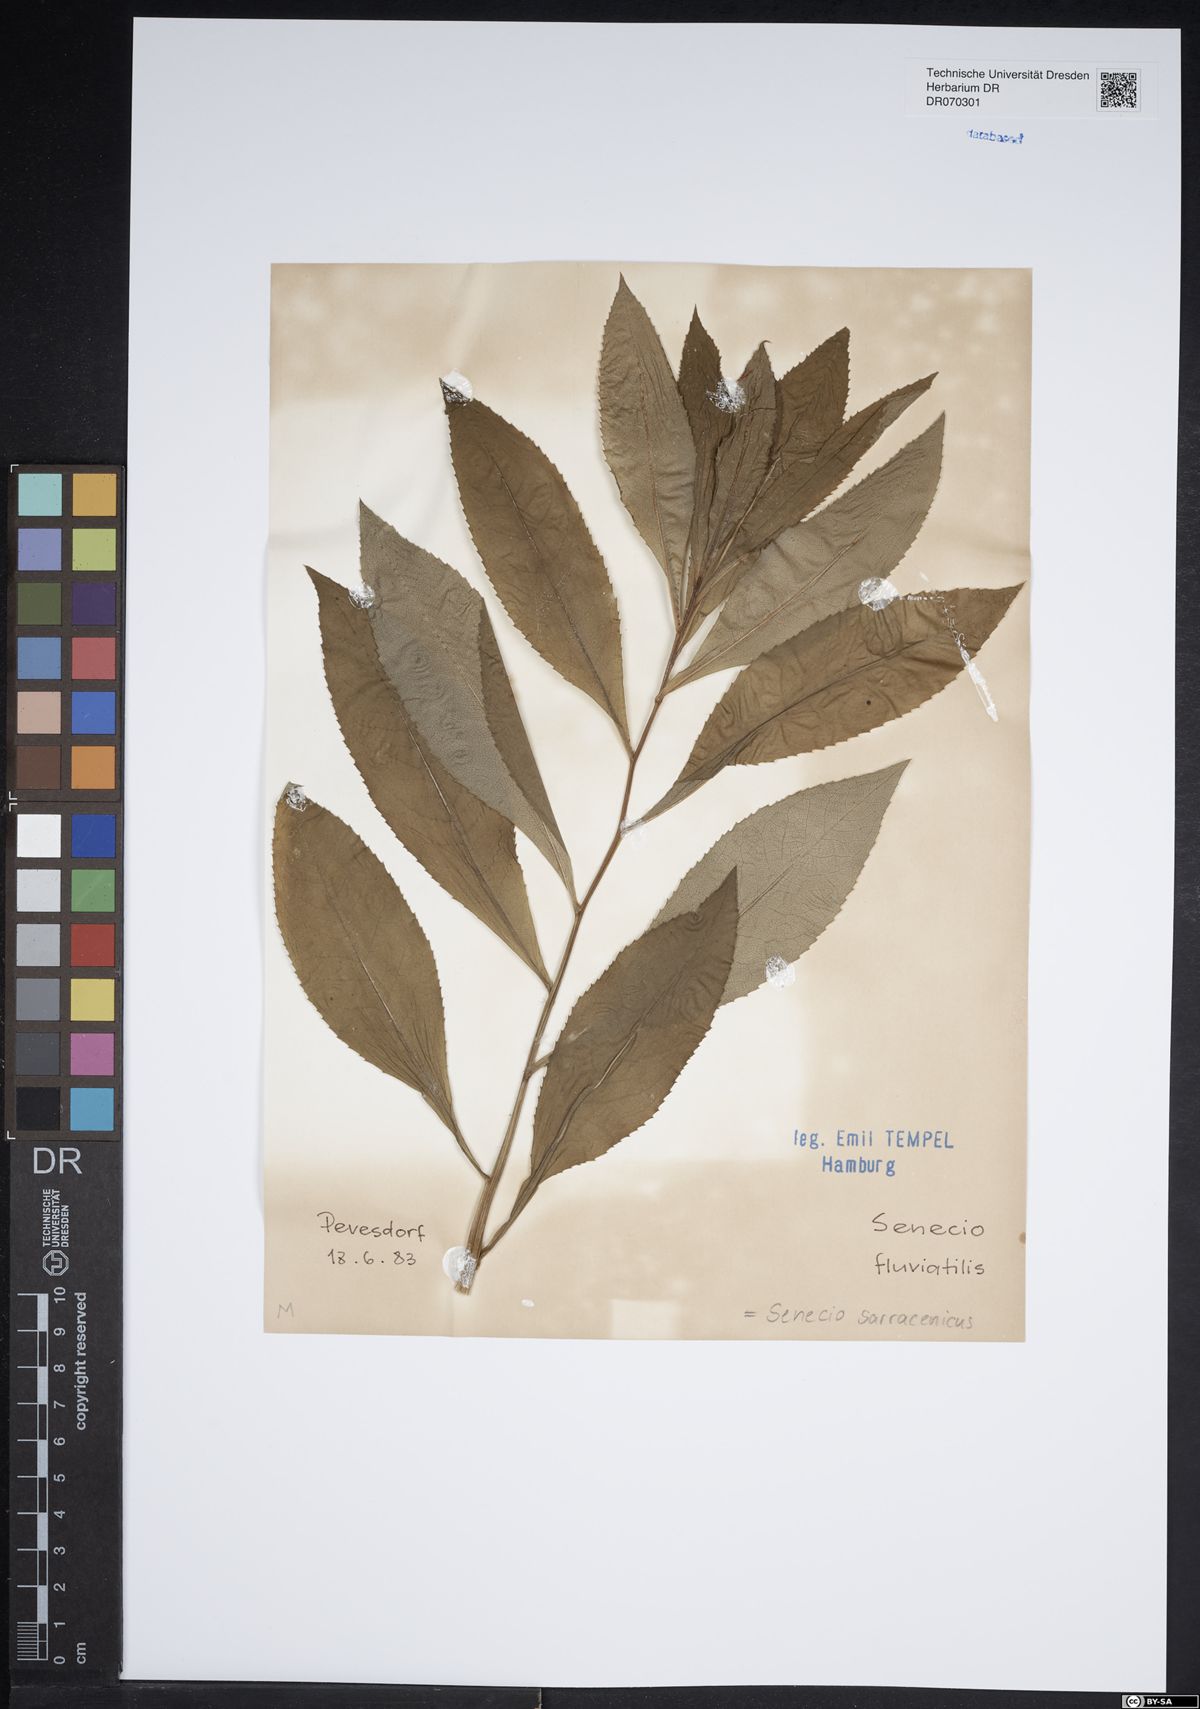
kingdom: Plantae
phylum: Tracheophyta
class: Magnoliopsida
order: Asterales
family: Asteraceae
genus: Senecio
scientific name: Senecio saracenicus
